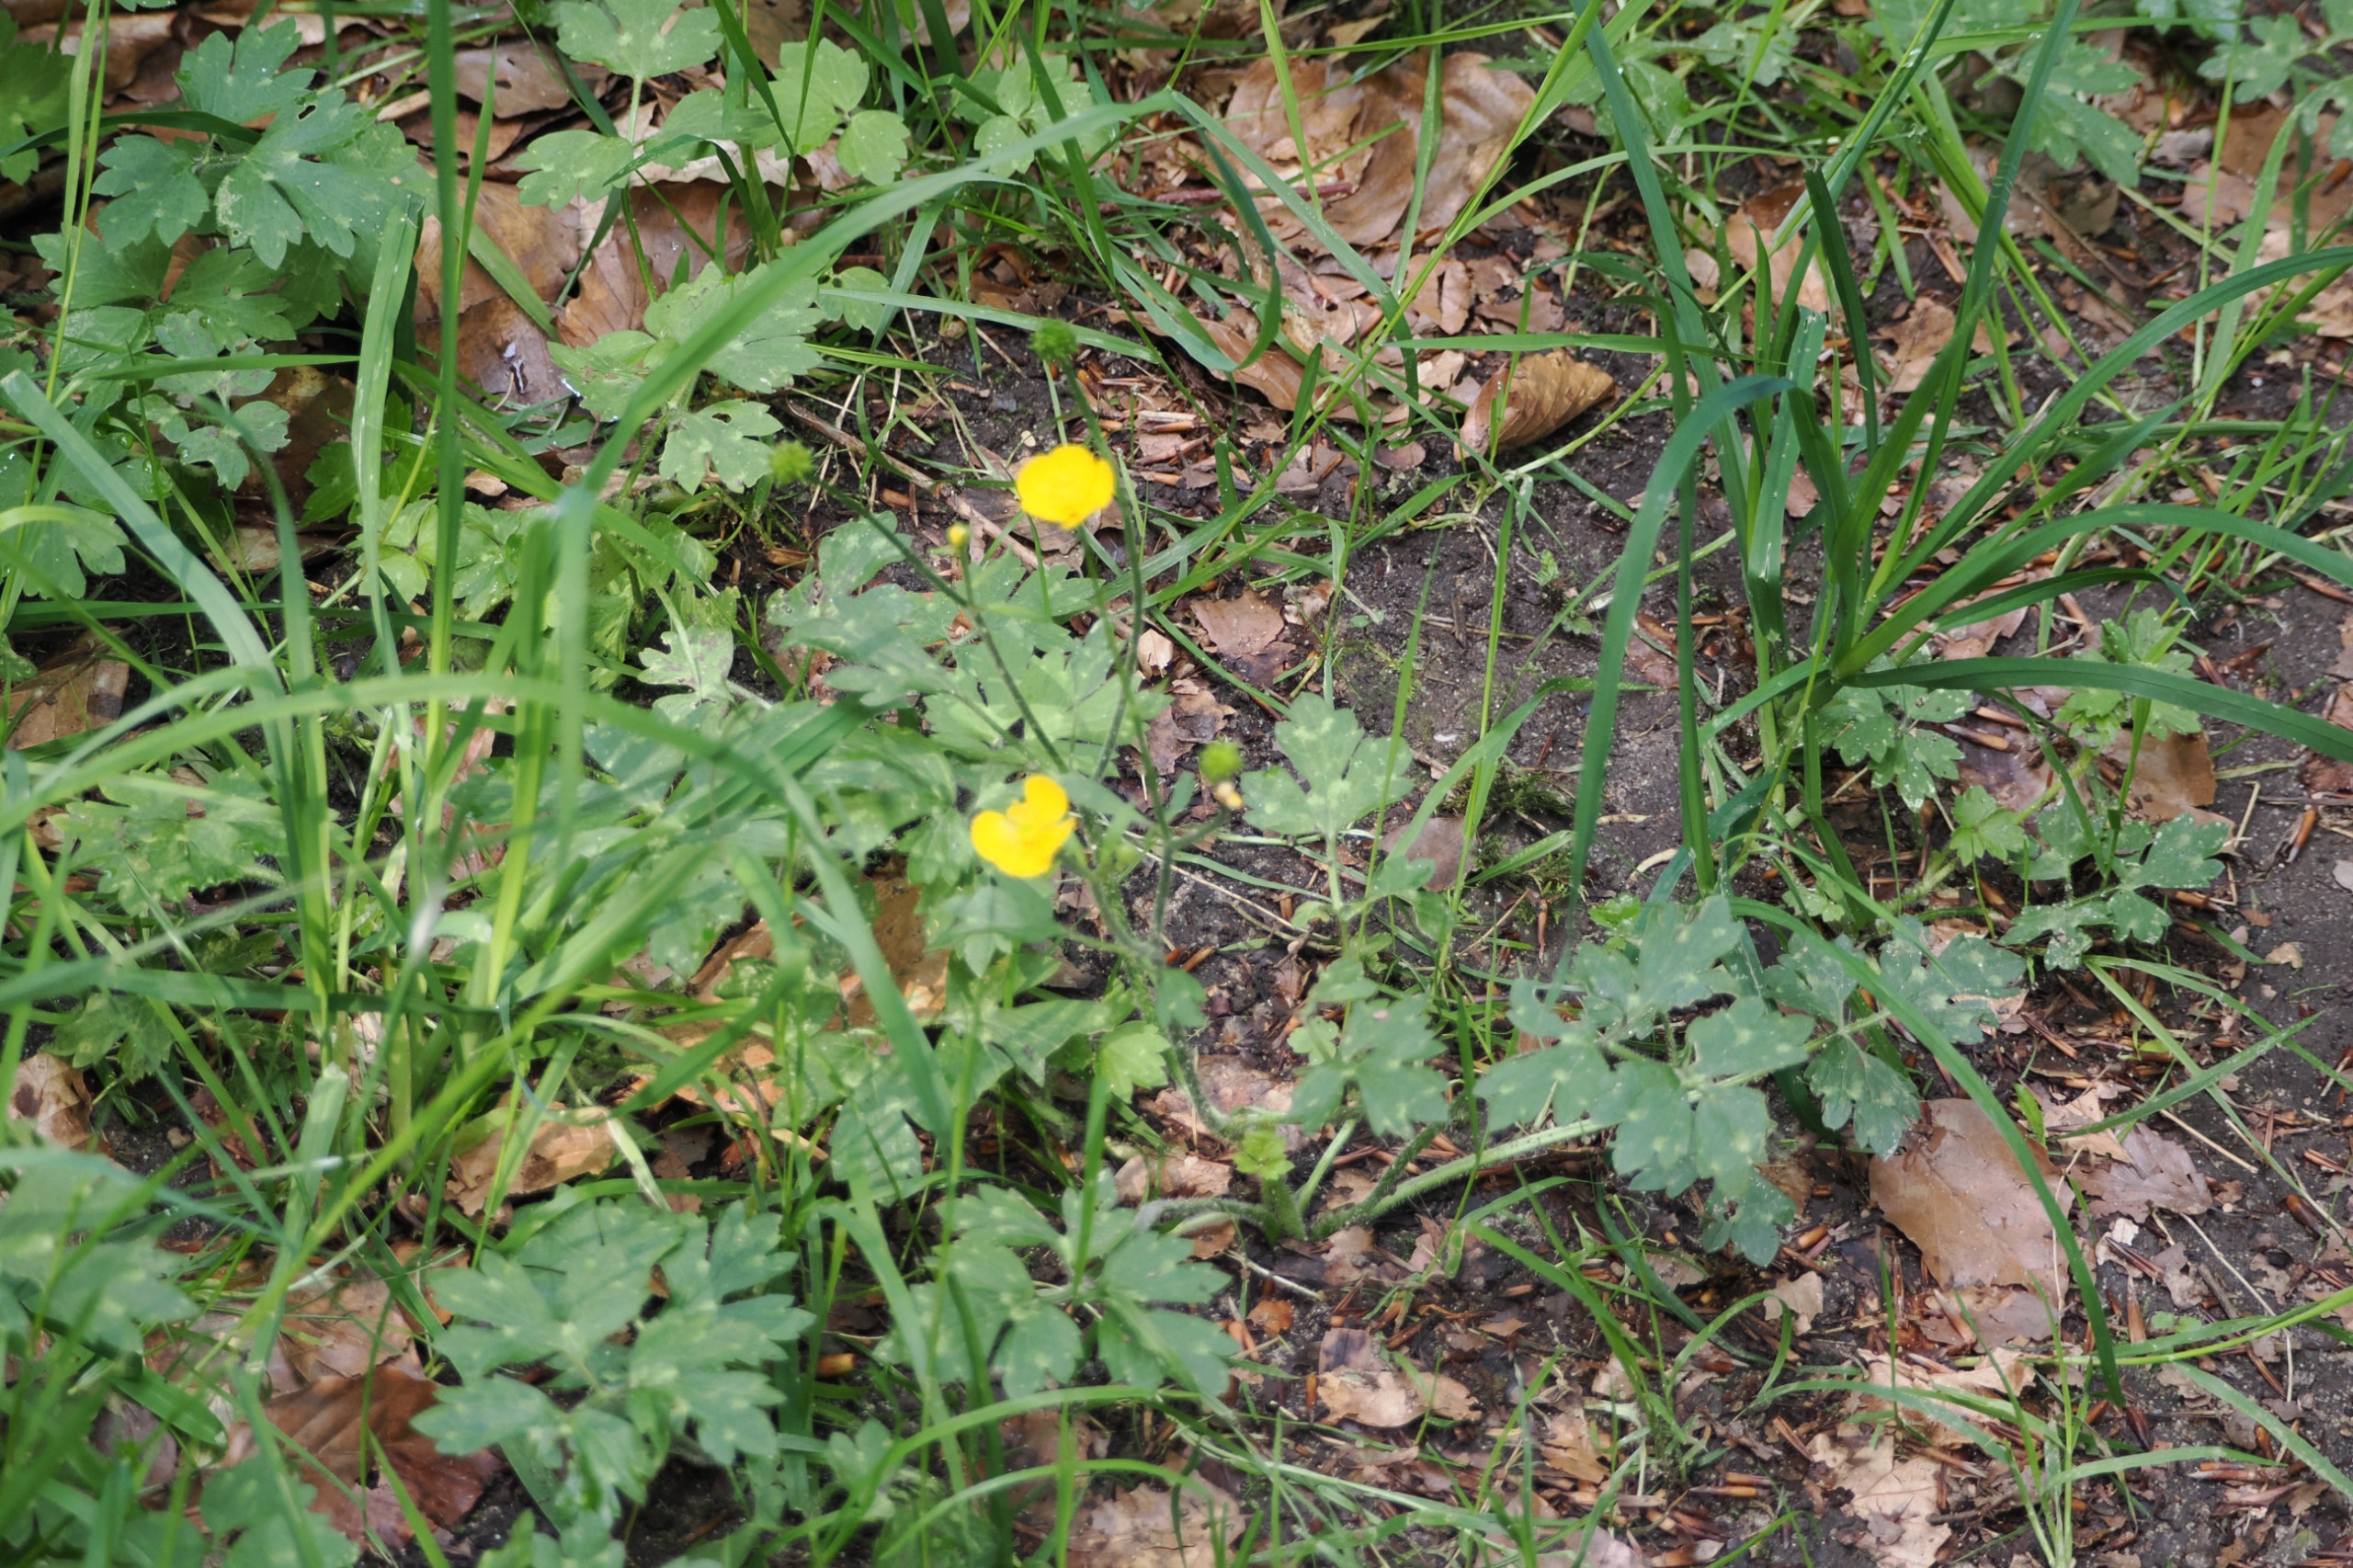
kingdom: Plantae
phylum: Tracheophyta
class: Magnoliopsida
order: Ranunculales
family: Ranunculaceae
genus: Ranunculus
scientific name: Ranunculus repens
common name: Lav ranunkel
